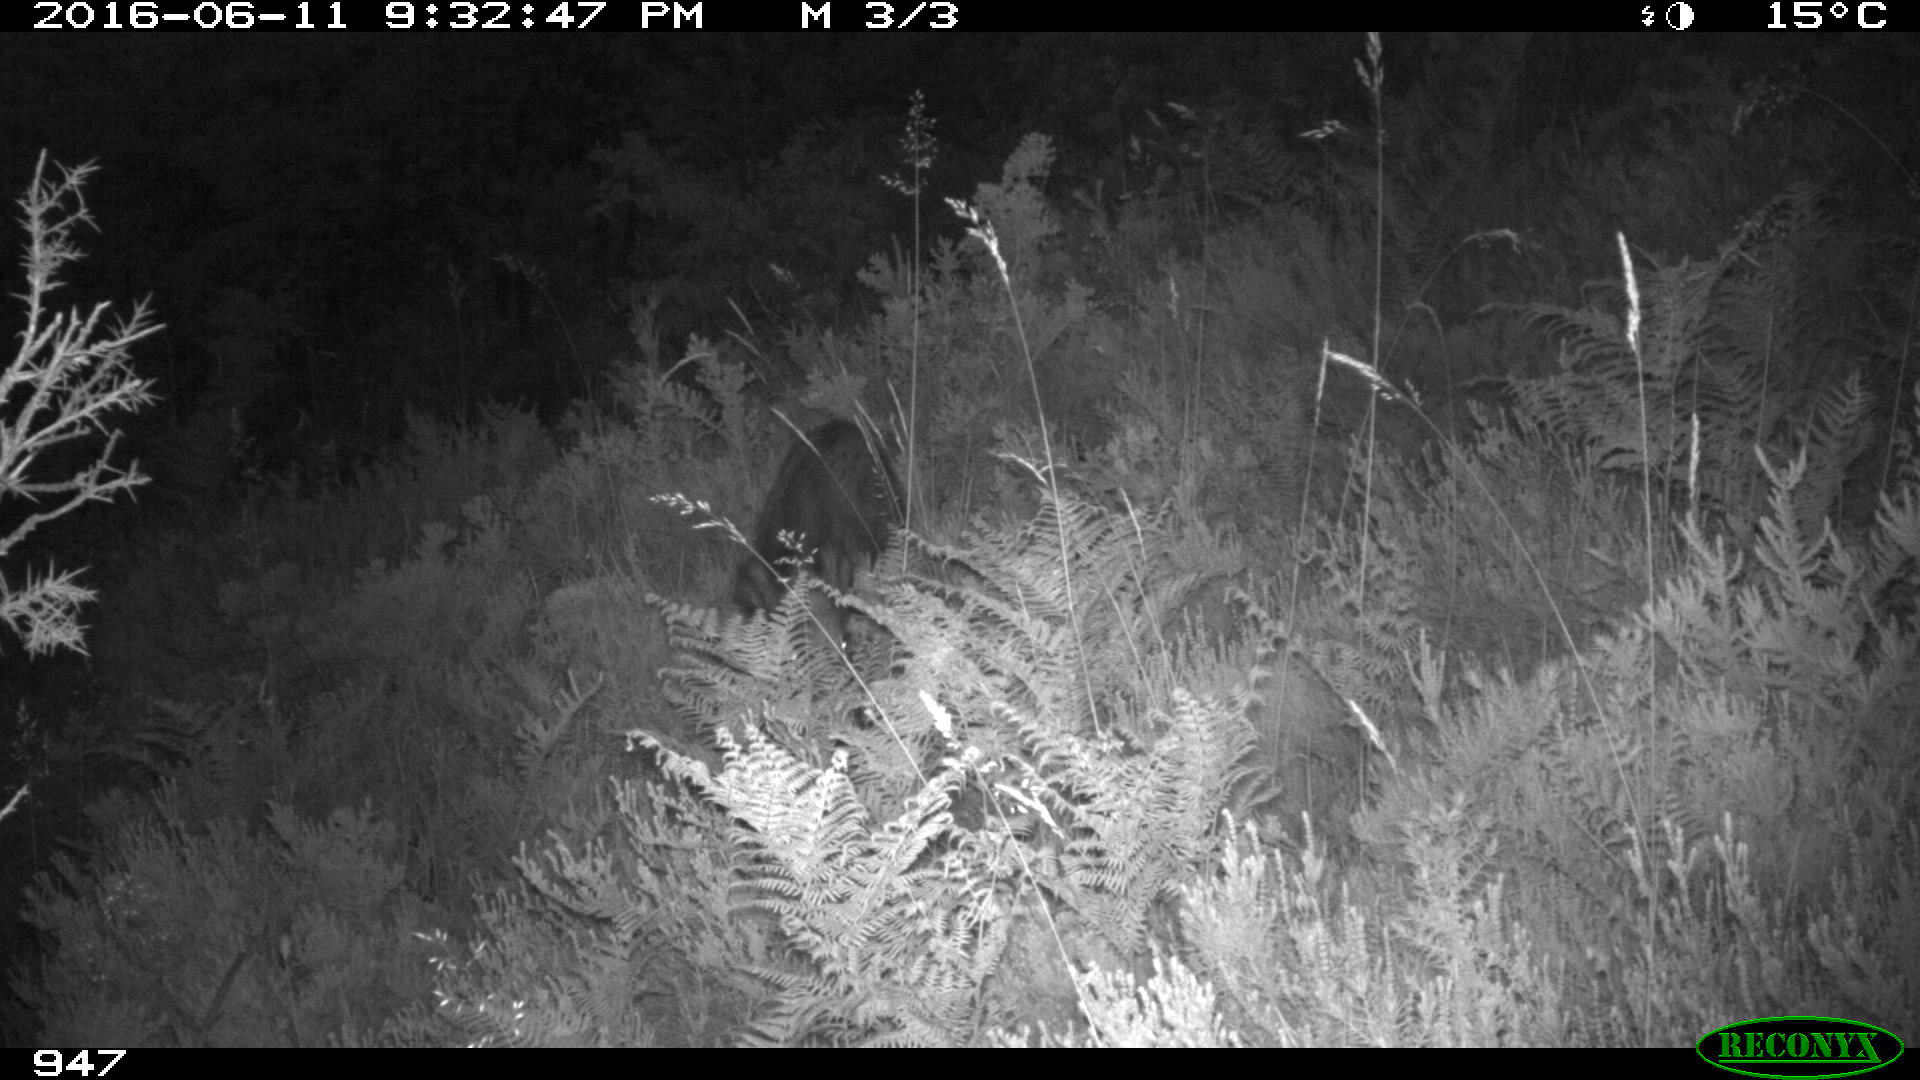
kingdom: Animalia
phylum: Chordata
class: Mammalia
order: Artiodactyla
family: Suidae
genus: Sus
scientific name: Sus scrofa
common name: Wild boar
